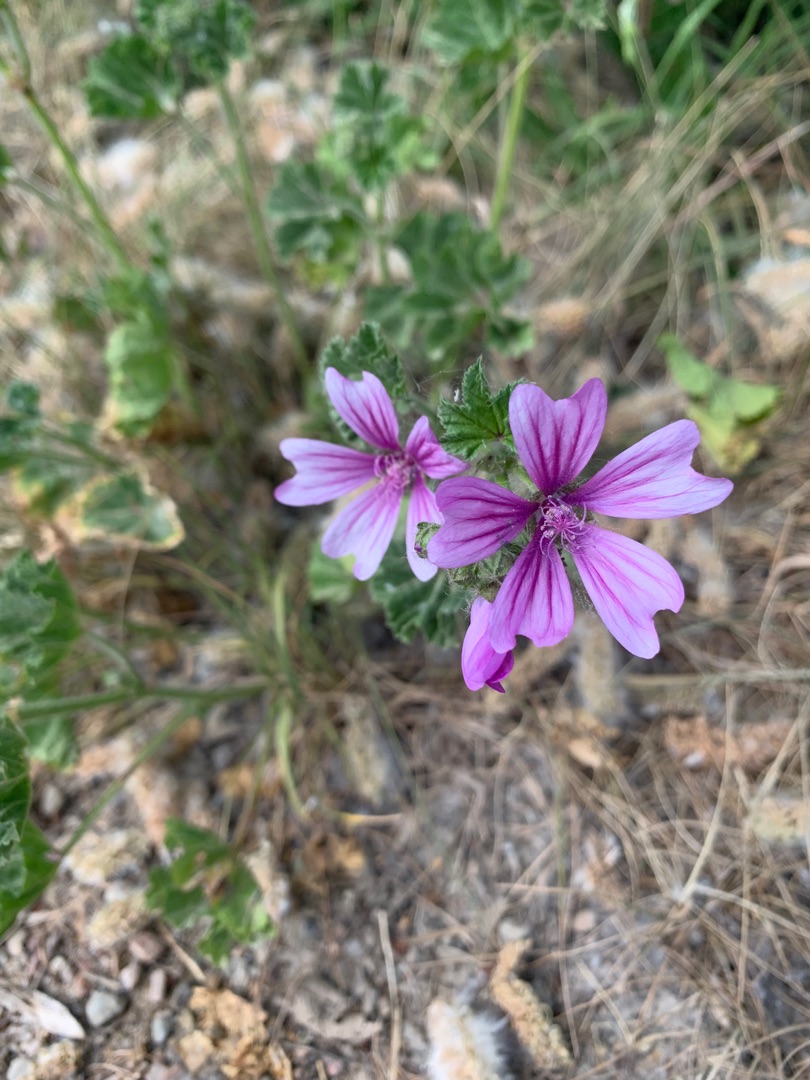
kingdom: Plantae
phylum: Tracheophyta
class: Magnoliopsida
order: Malvales
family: Malvaceae
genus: Malva
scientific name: Malva sylvestris
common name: Almindelig katost
